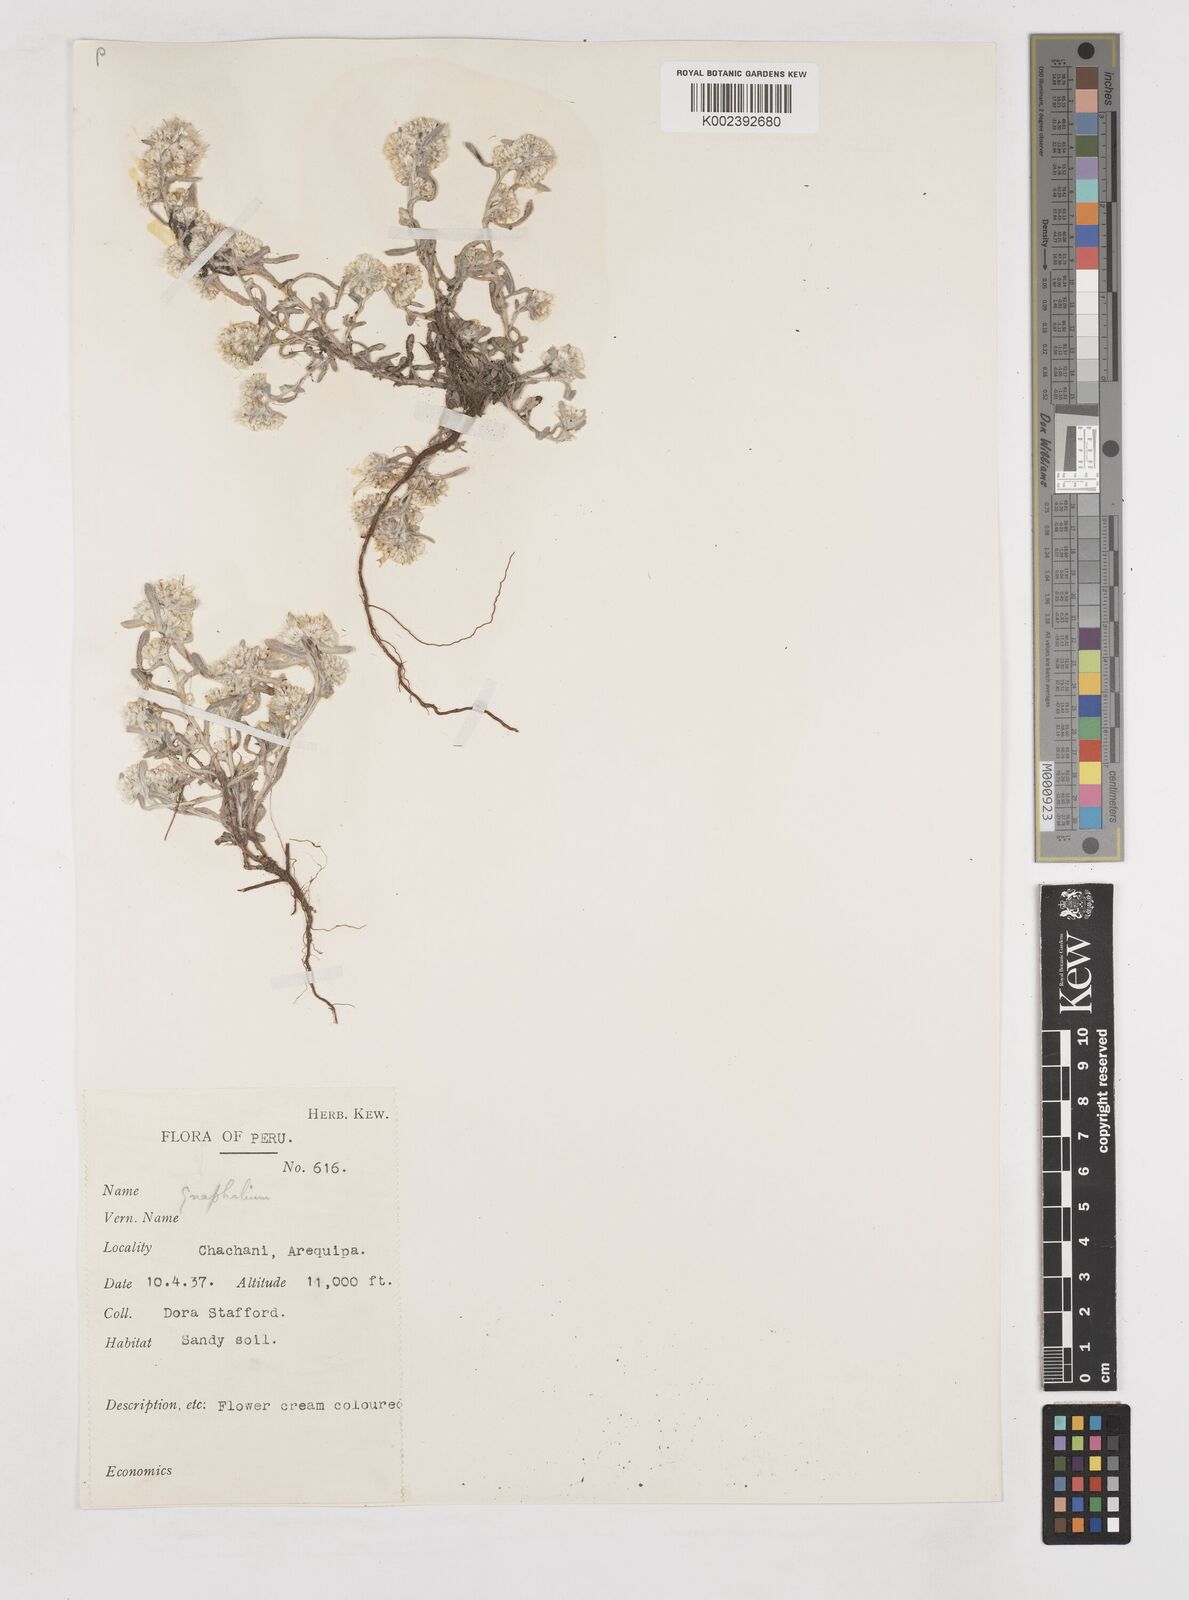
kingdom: Plantae
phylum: Tracheophyta
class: Magnoliopsida
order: Asterales
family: Asteraceae
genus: Gnaphalium
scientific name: Gnaphalium
